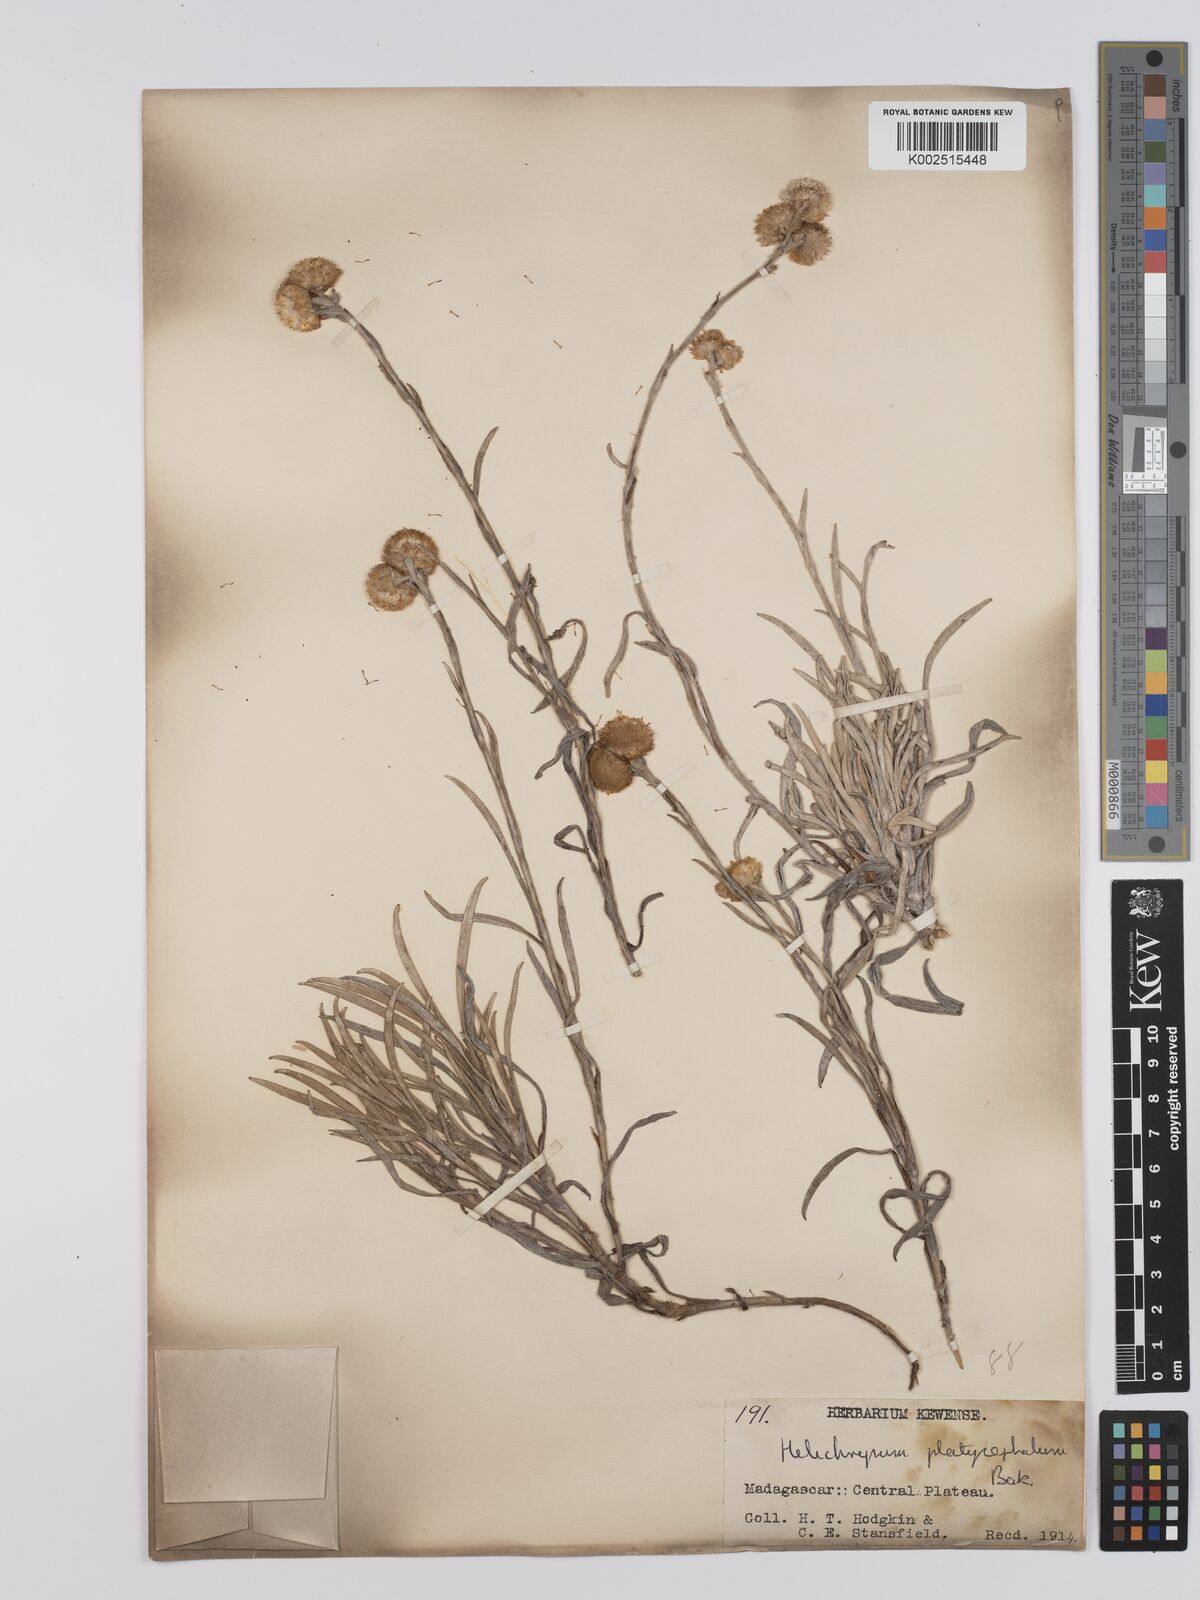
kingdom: Plantae
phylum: Tracheophyta
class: Magnoliopsida
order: Asterales
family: Asteraceae
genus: Helichrysum
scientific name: Helichrysum platycephalum
